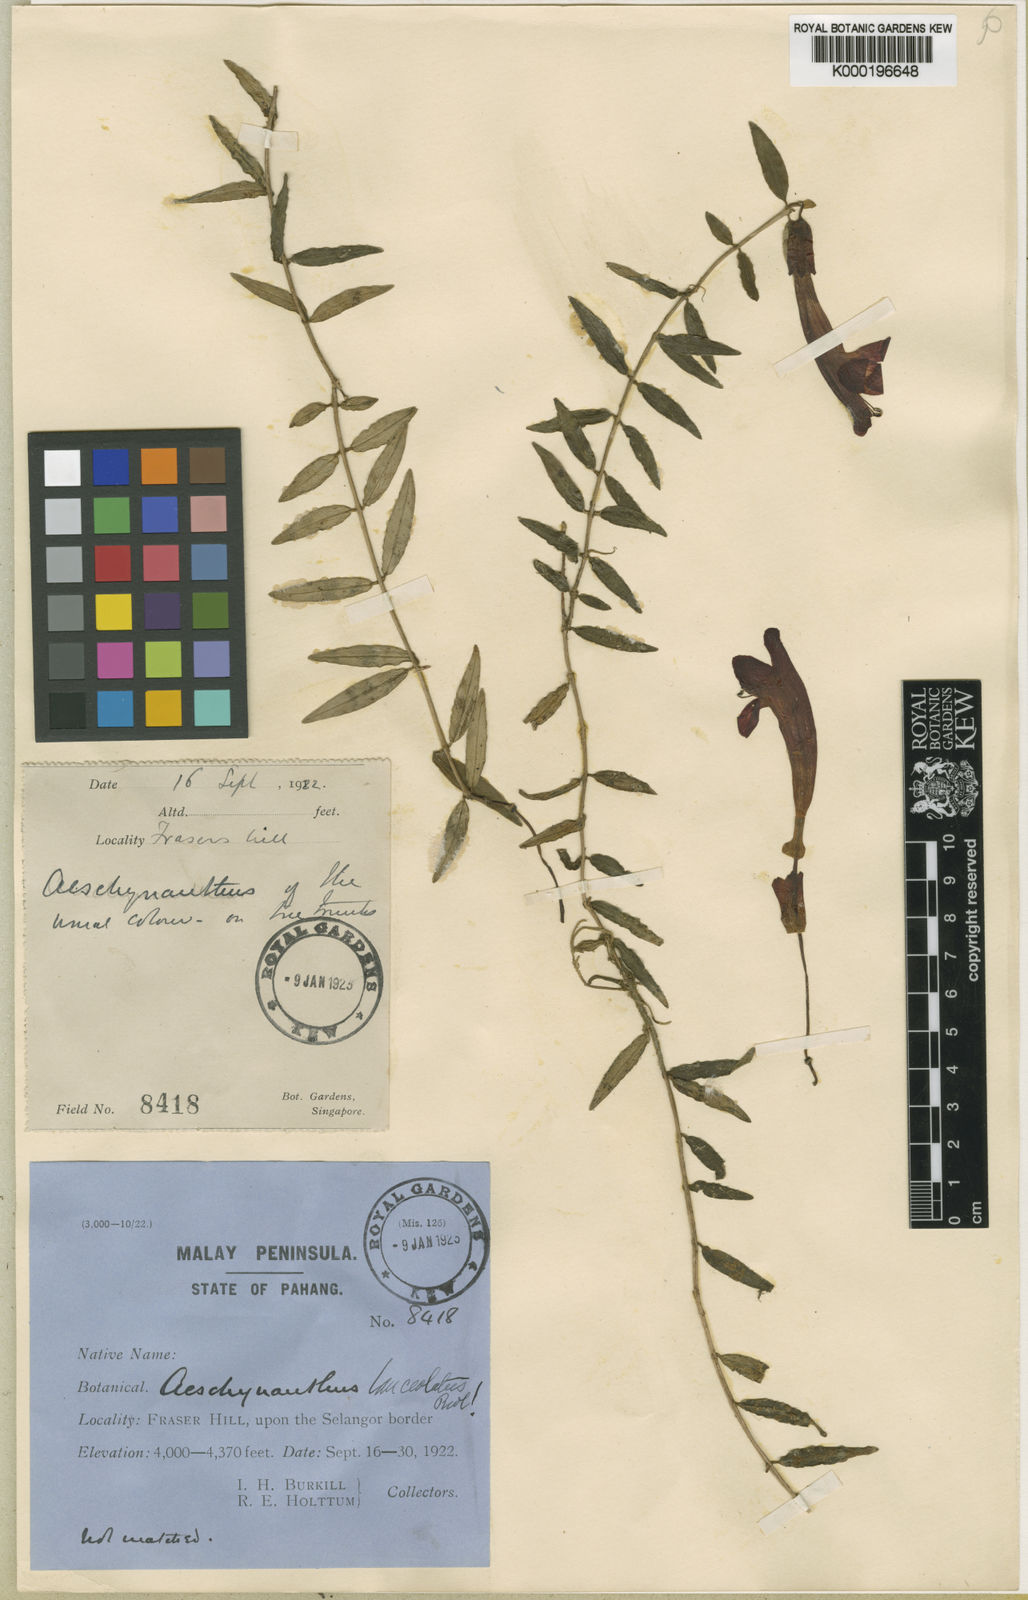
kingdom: Plantae
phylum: Tracheophyta
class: Magnoliopsida
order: Lamiales
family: Gesneriaceae
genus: Aeschynanthus
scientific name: Aeschynanthus pulcher
